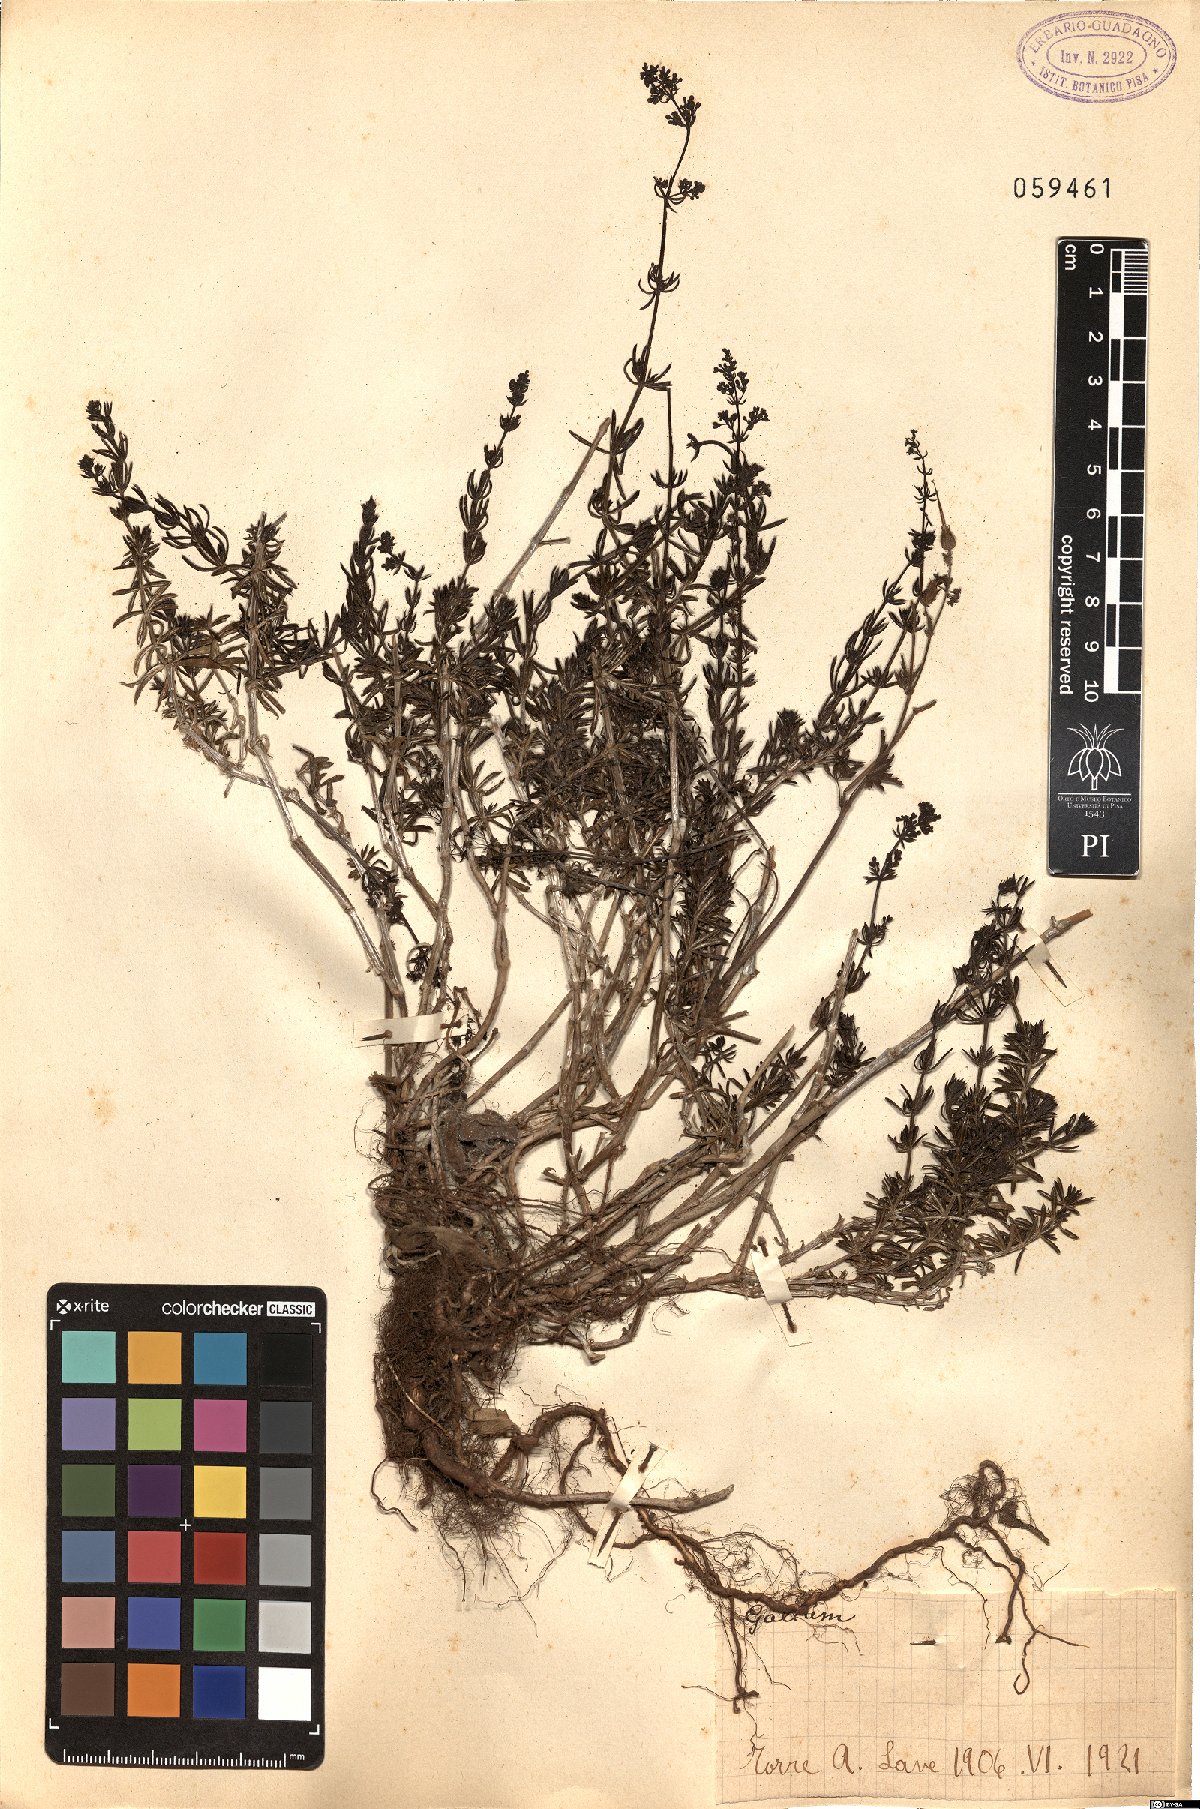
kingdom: Plantae
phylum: Tracheophyta
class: Magnoliopsida
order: Gentianales
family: Rubiaceae
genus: Galium
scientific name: Galium
